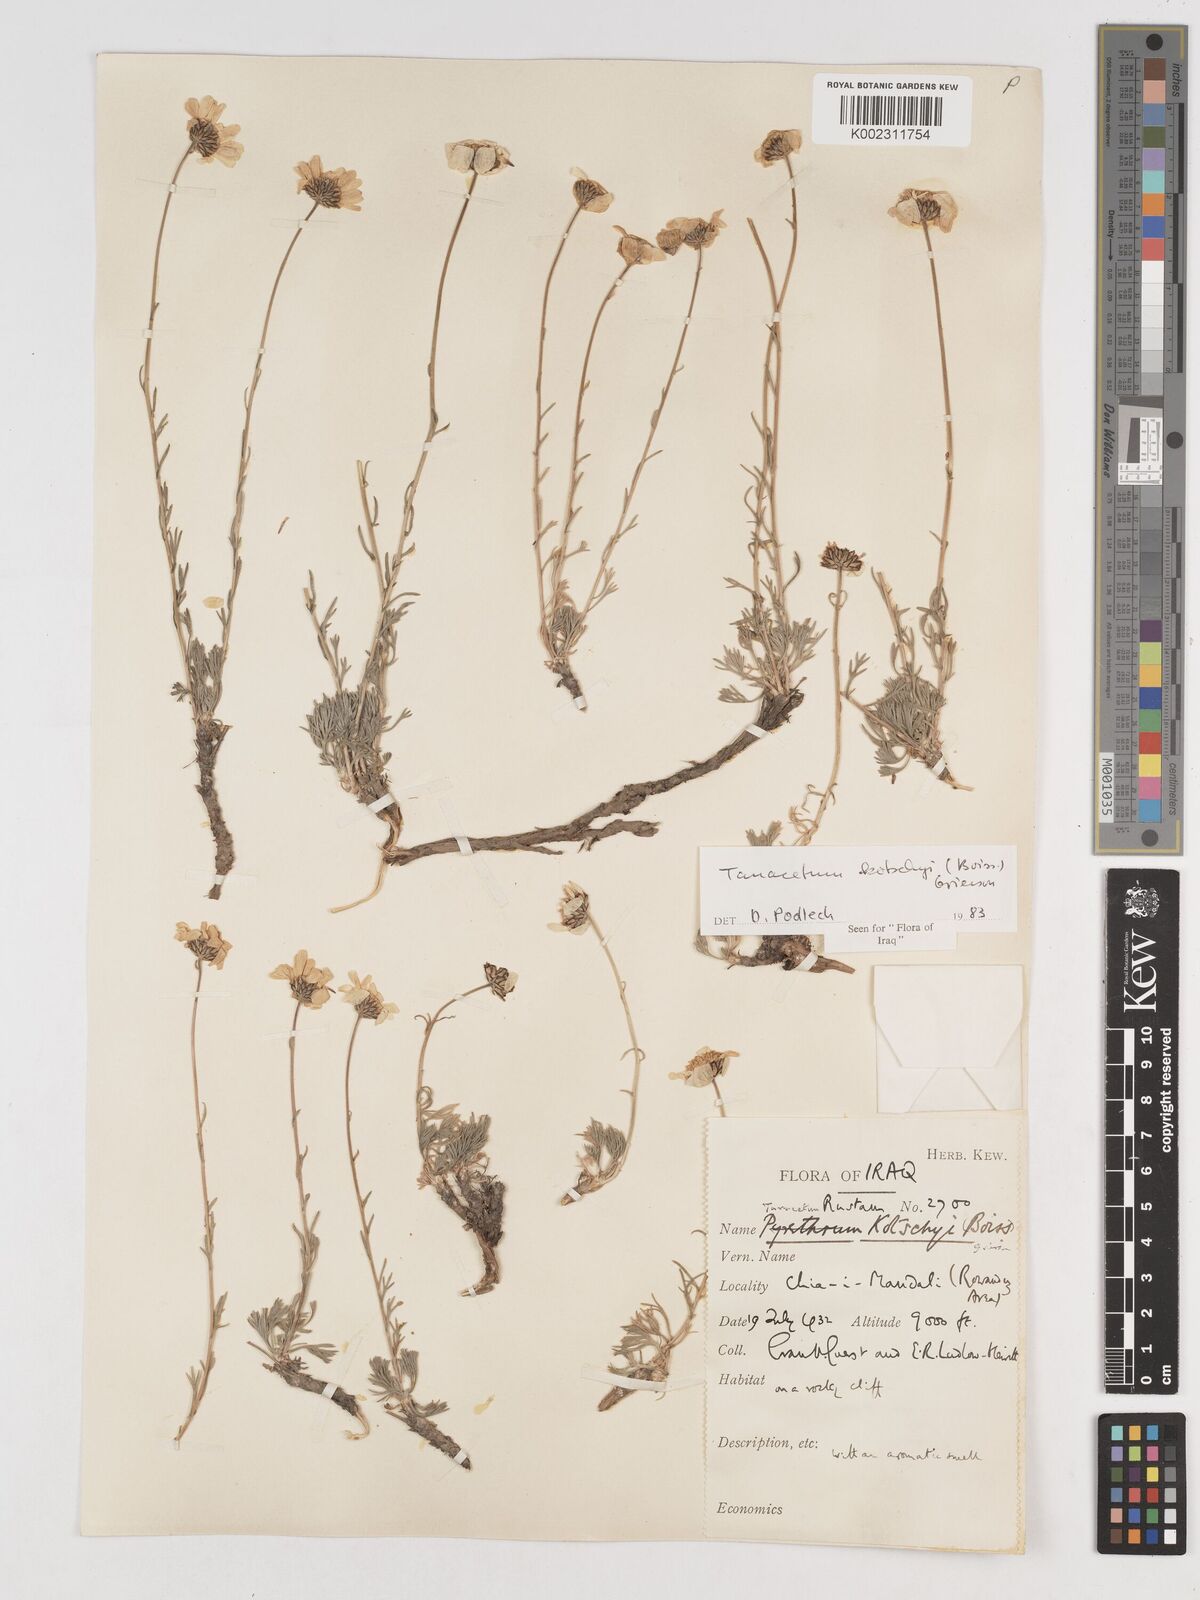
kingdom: Plantae
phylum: Tracheophyta
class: Magnoliopsida
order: Asterales
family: Asteraceae
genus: Tanacetum
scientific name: Tanacetum polycephalum
